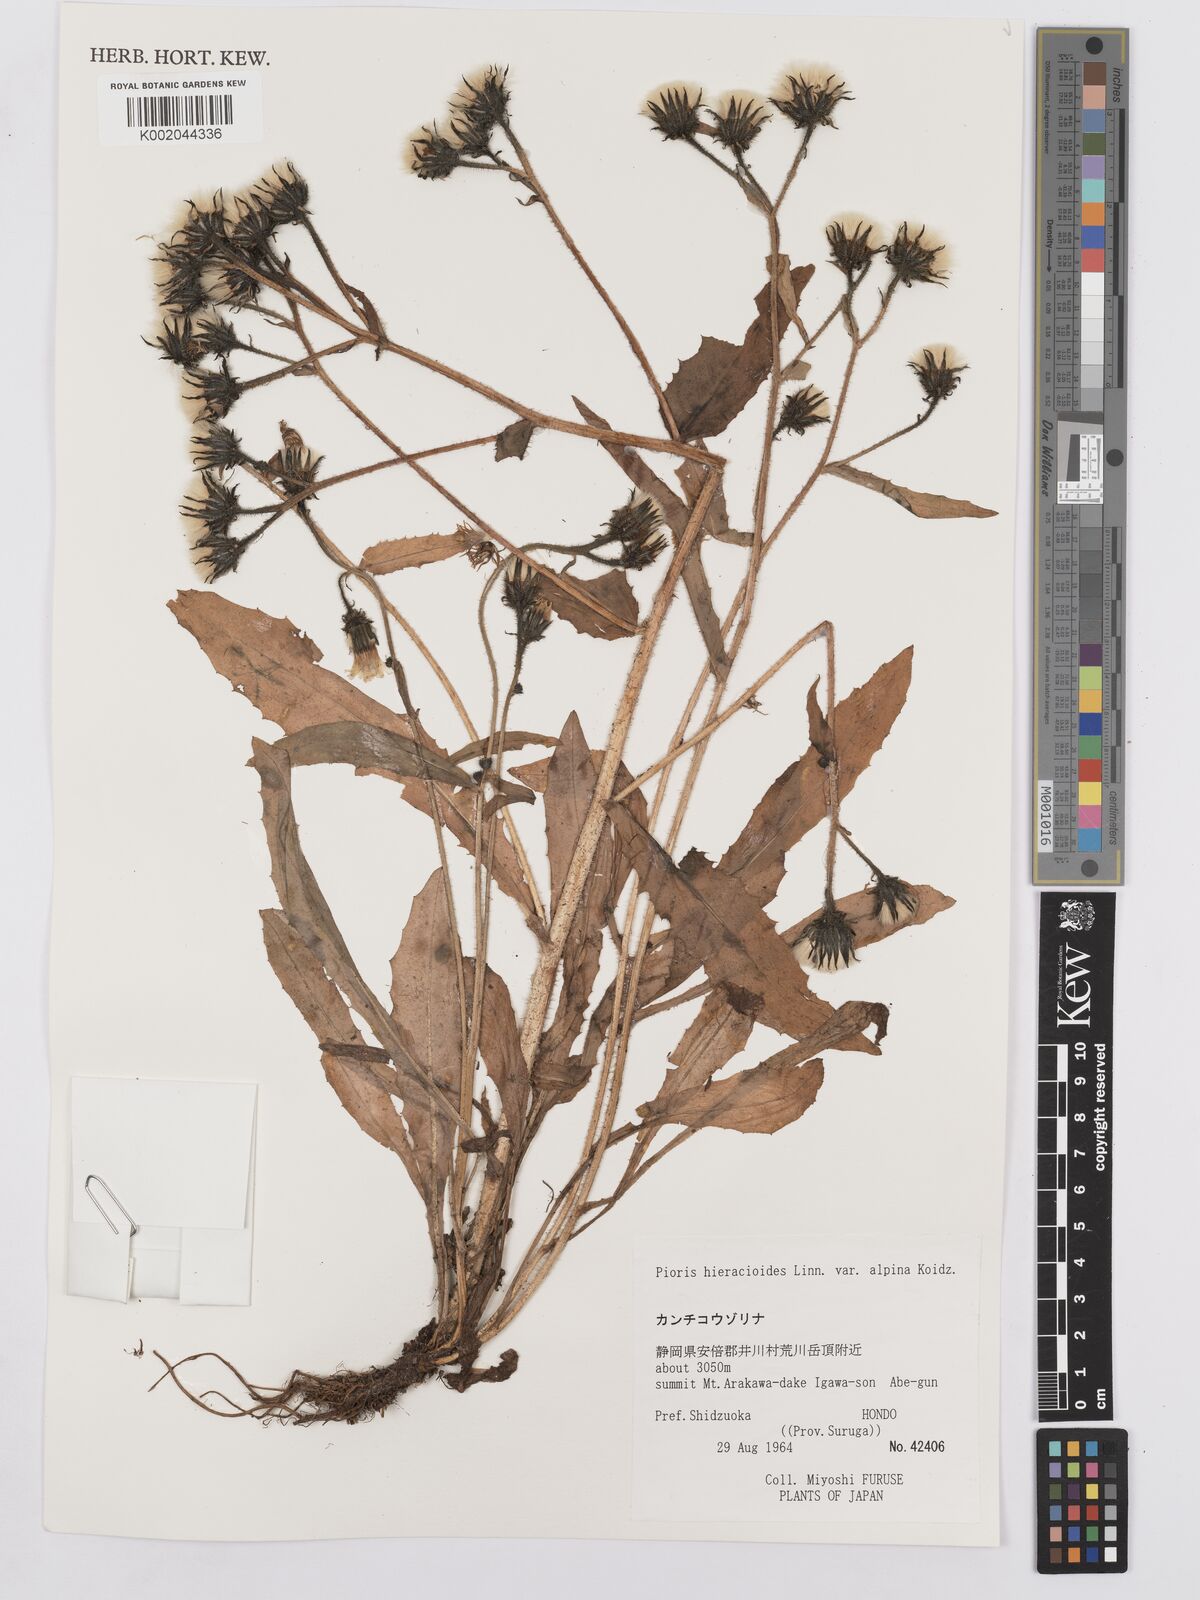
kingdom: Plantae
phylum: Tracheophyta
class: Magnoliopsida
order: Asterales
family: Asteraceae
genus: Picris
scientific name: Picris hieracioides
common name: Hawkweed oxtongue
